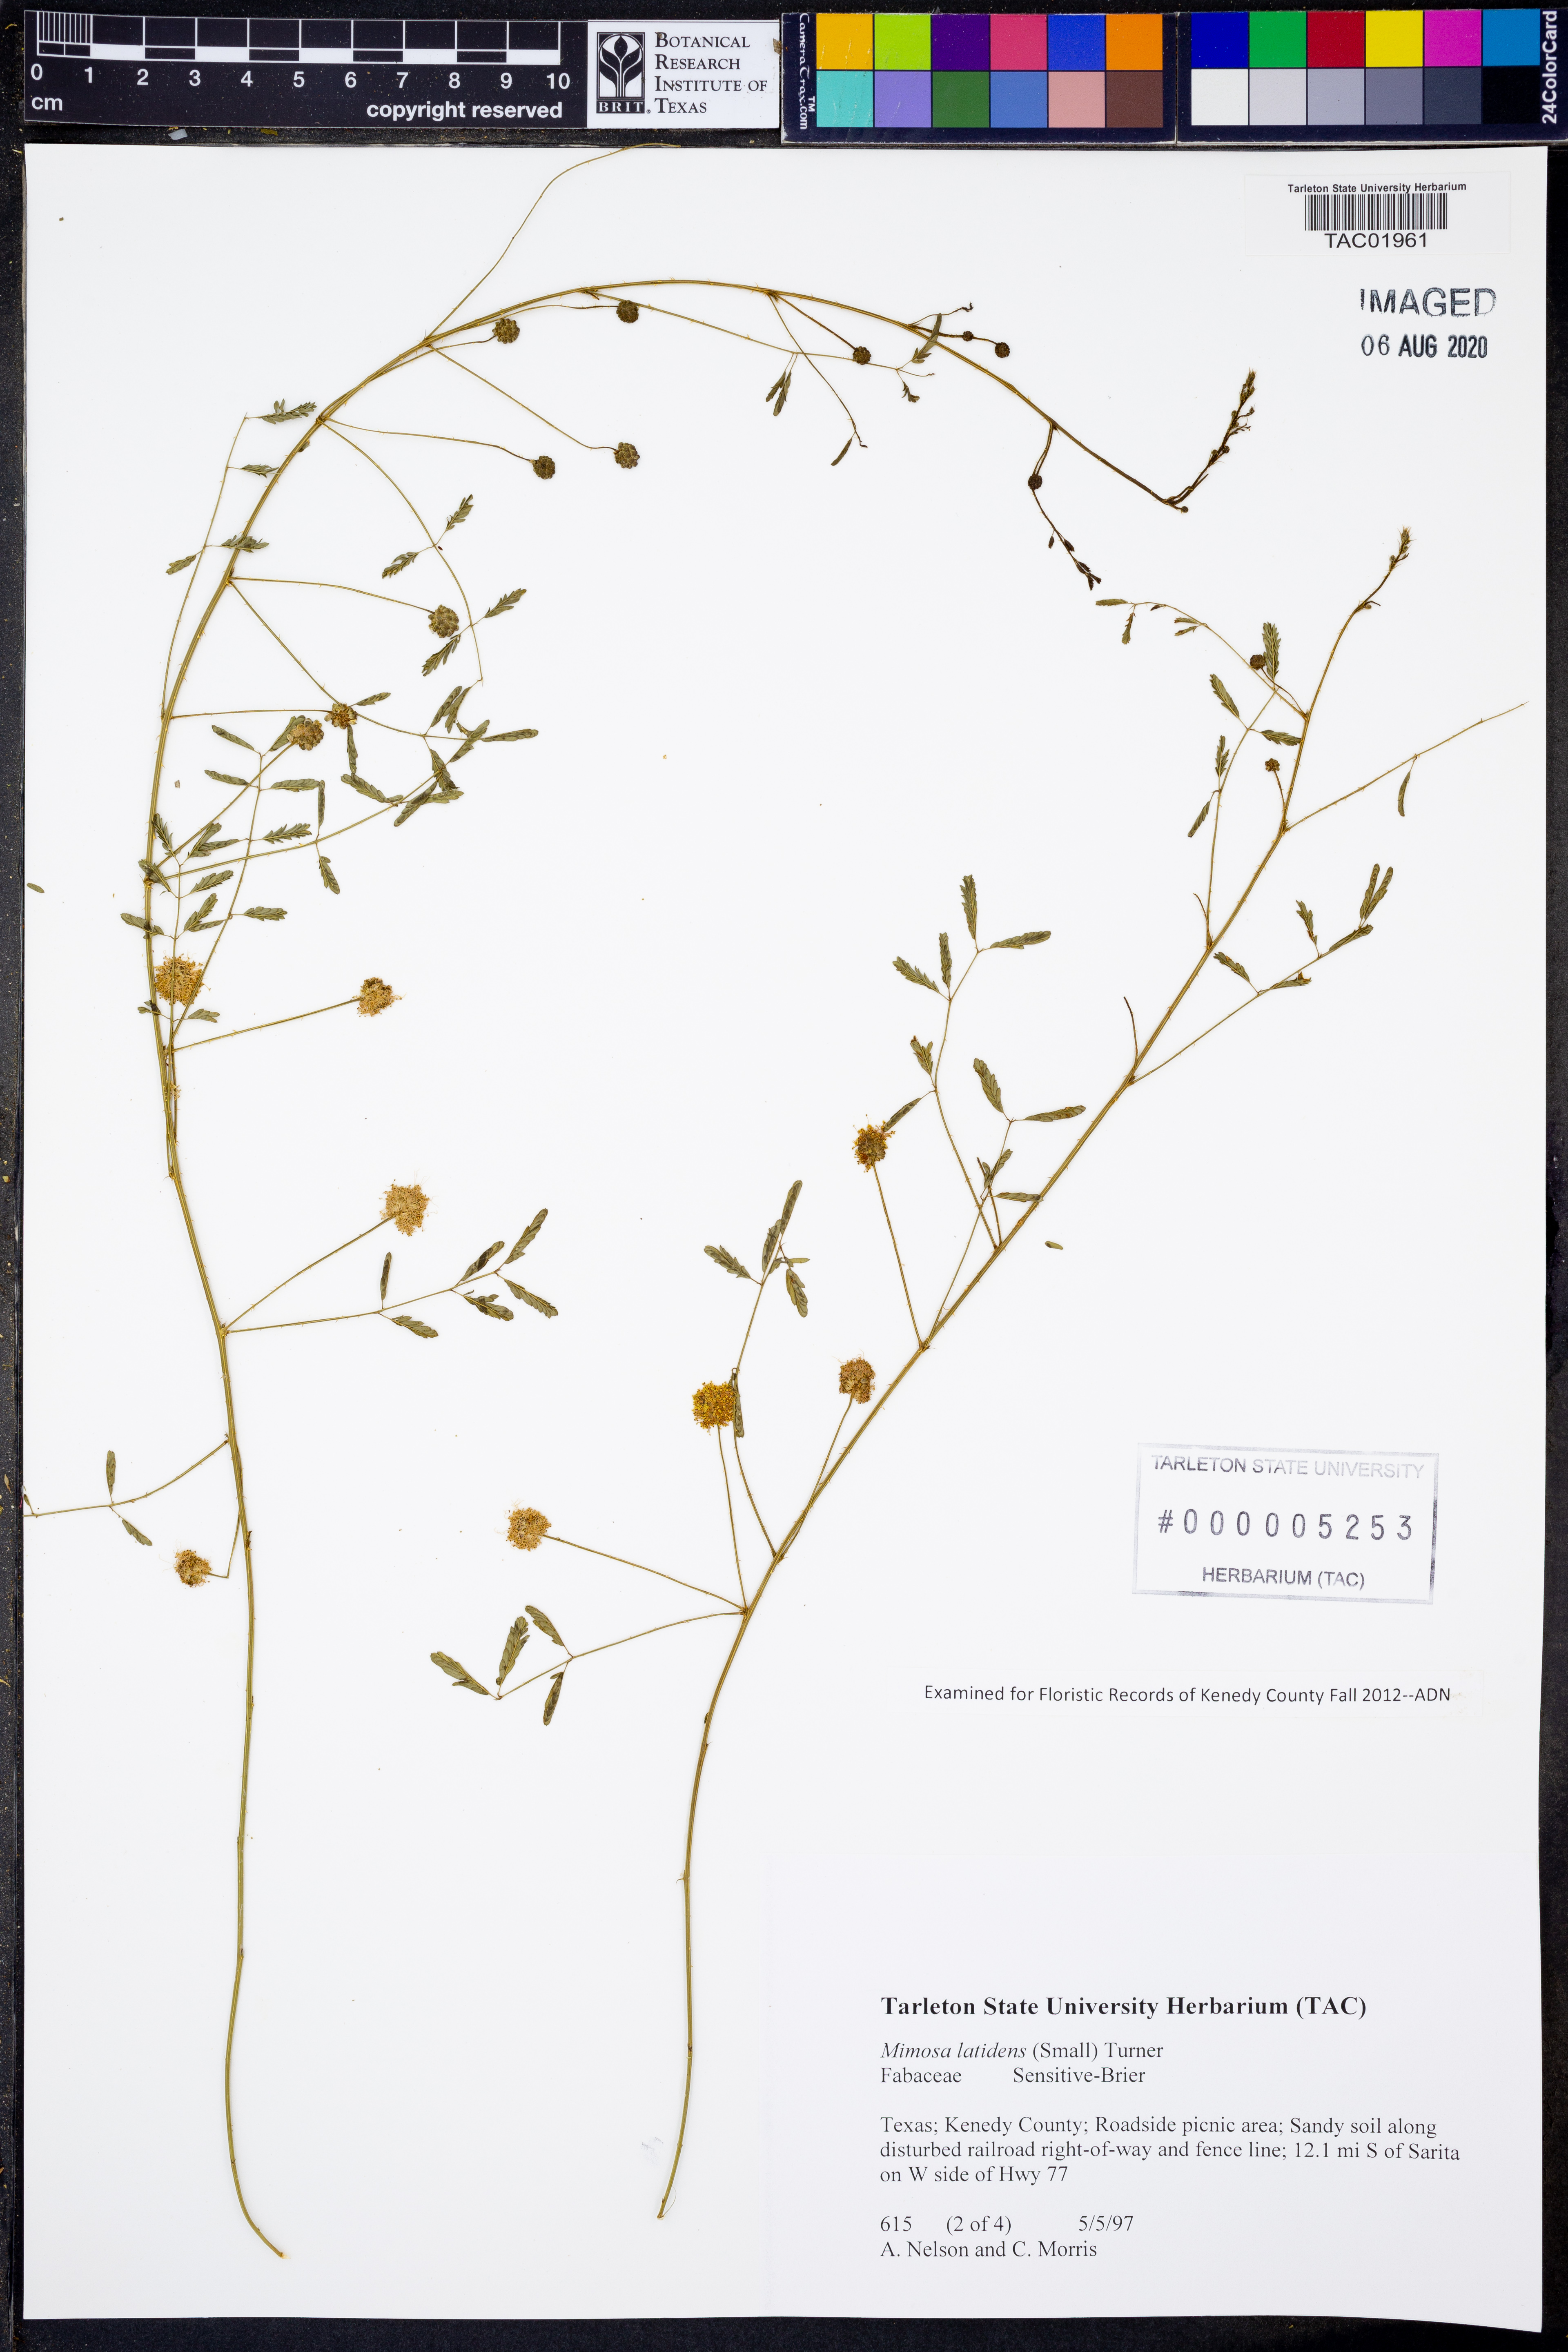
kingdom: Plantae
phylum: Tracheophyta
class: Magnoliopsida
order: Fabales
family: Fabaceae
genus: Mimosa
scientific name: Mimosa latidens
